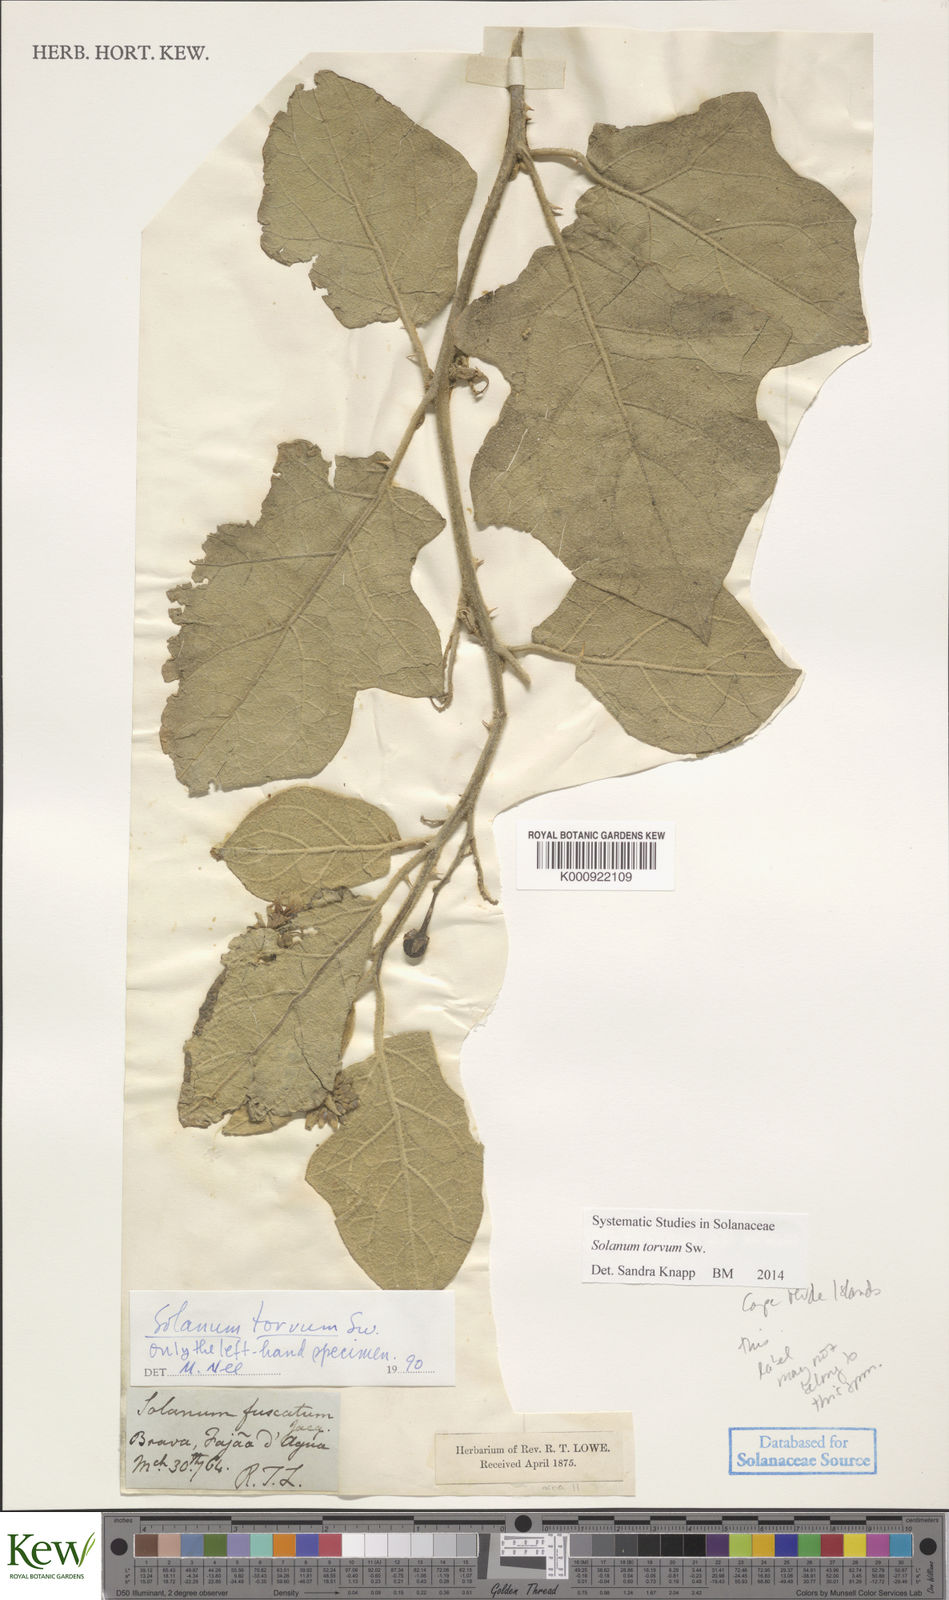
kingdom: Plantae
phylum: Tracheophyta
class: Magnoliopsida
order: Solanales
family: Solanaceae
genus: Solanum
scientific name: Solanum torvum
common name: Turkey berry
